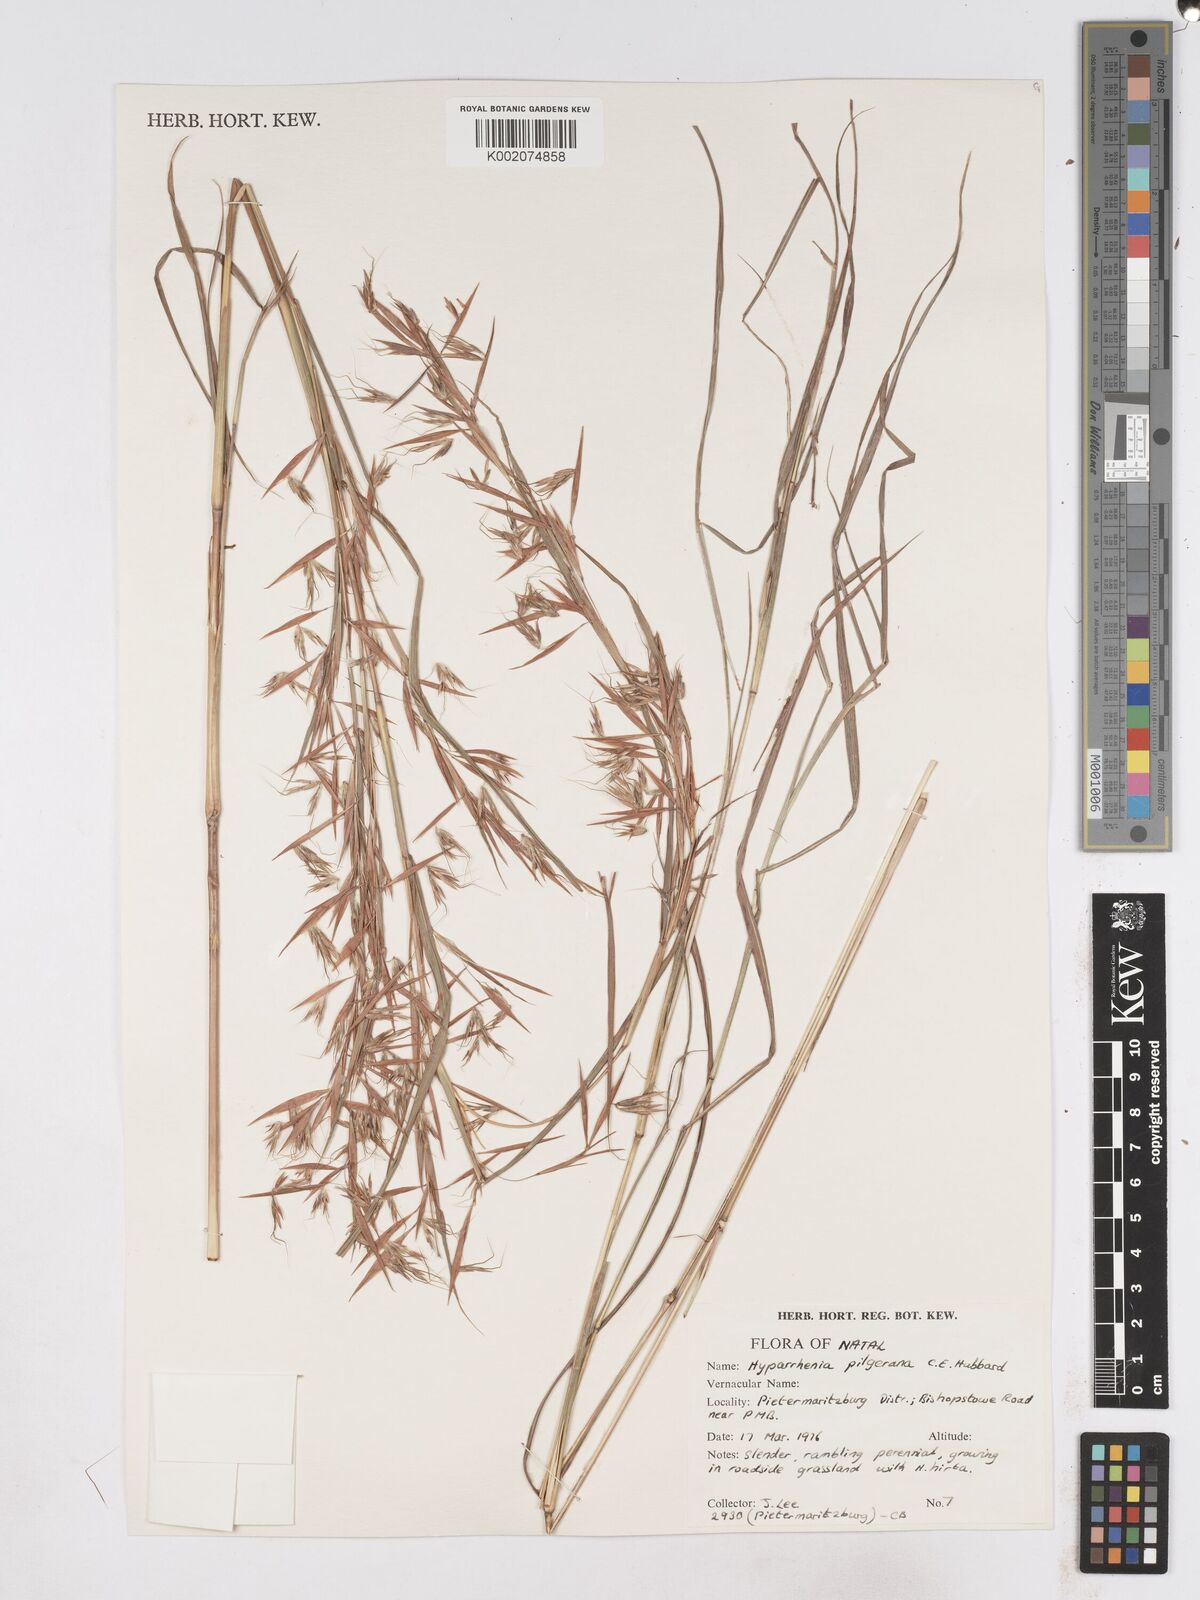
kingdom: Plantae
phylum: Tracheophyta
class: Liliopsida
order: Poales
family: Poaceae
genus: Hyparrhenia
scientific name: Hyparrhenia pilgeriana
